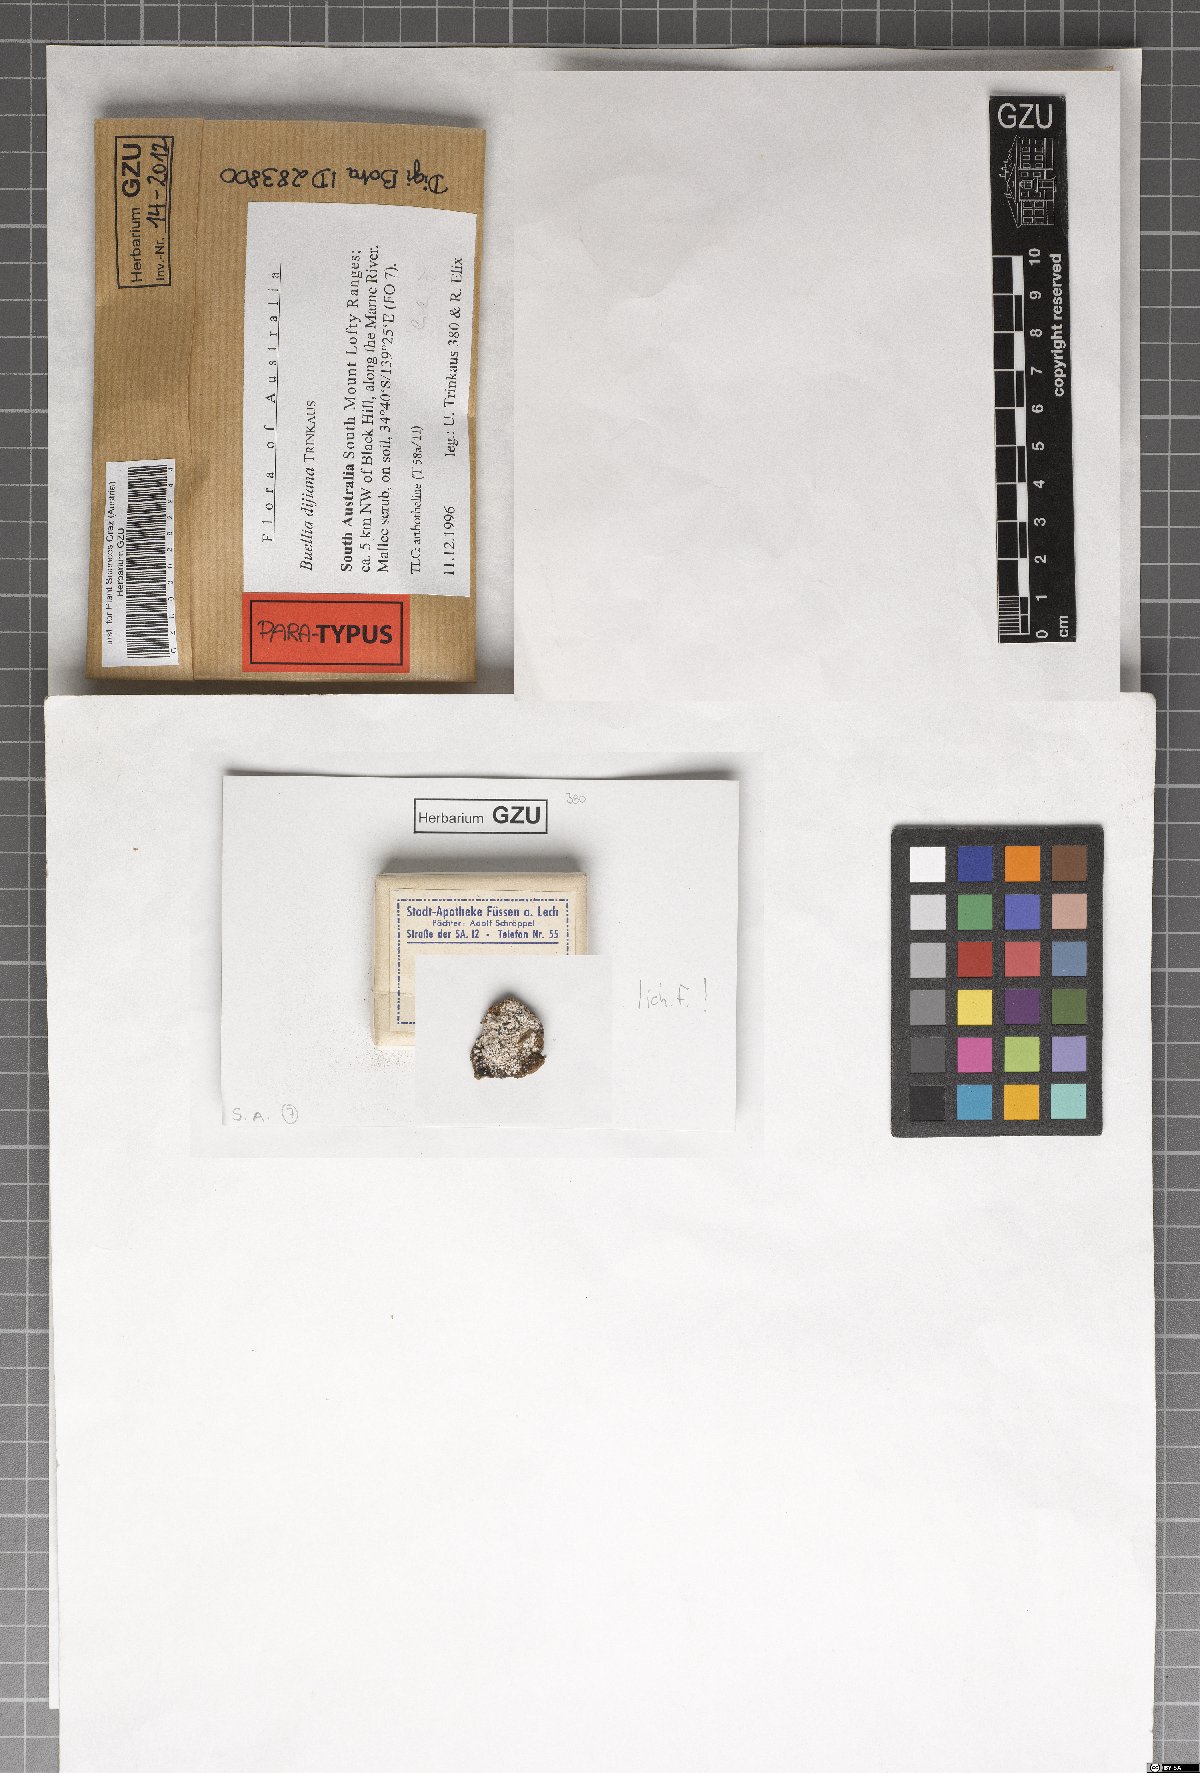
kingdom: Fungi
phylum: Ascomycota
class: Lecanoromycetes
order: Caliciales
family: Caliciaceae
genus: Buellia
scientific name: Buellia dayboroana
